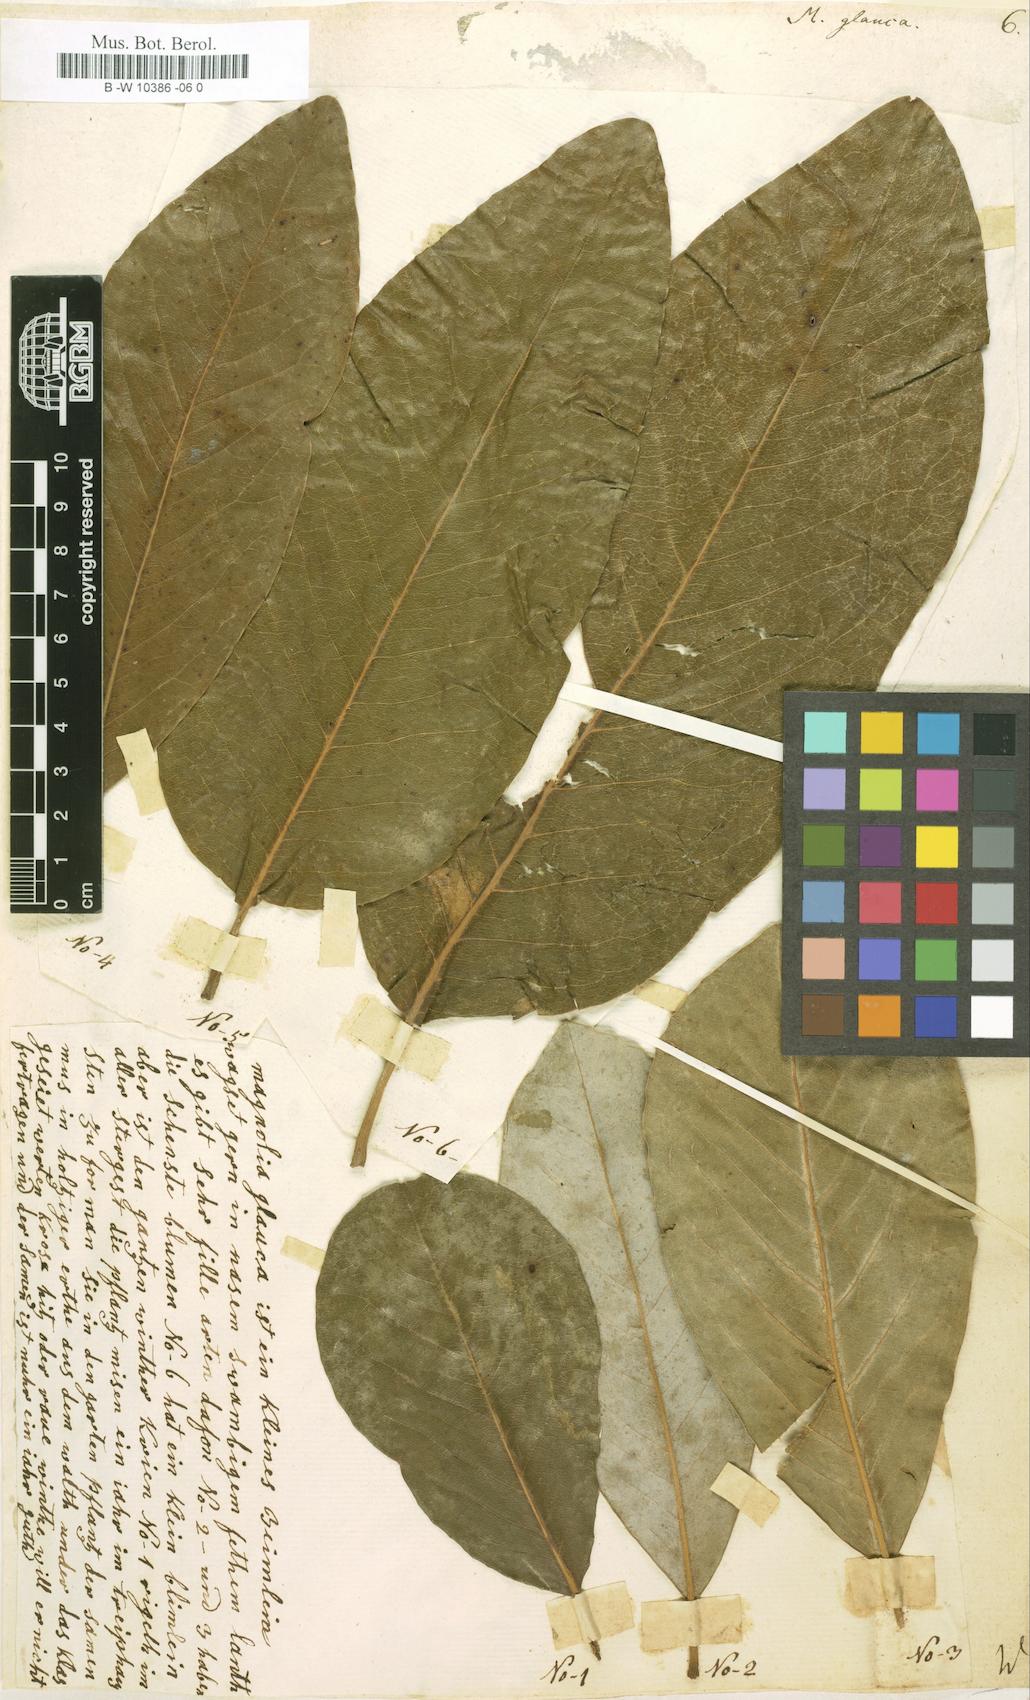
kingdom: Plantae
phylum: Tracheophyta
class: Magnoliopsida
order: Magnoliales
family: Magnoliaceae
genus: Magnolia
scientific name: Magnolia
